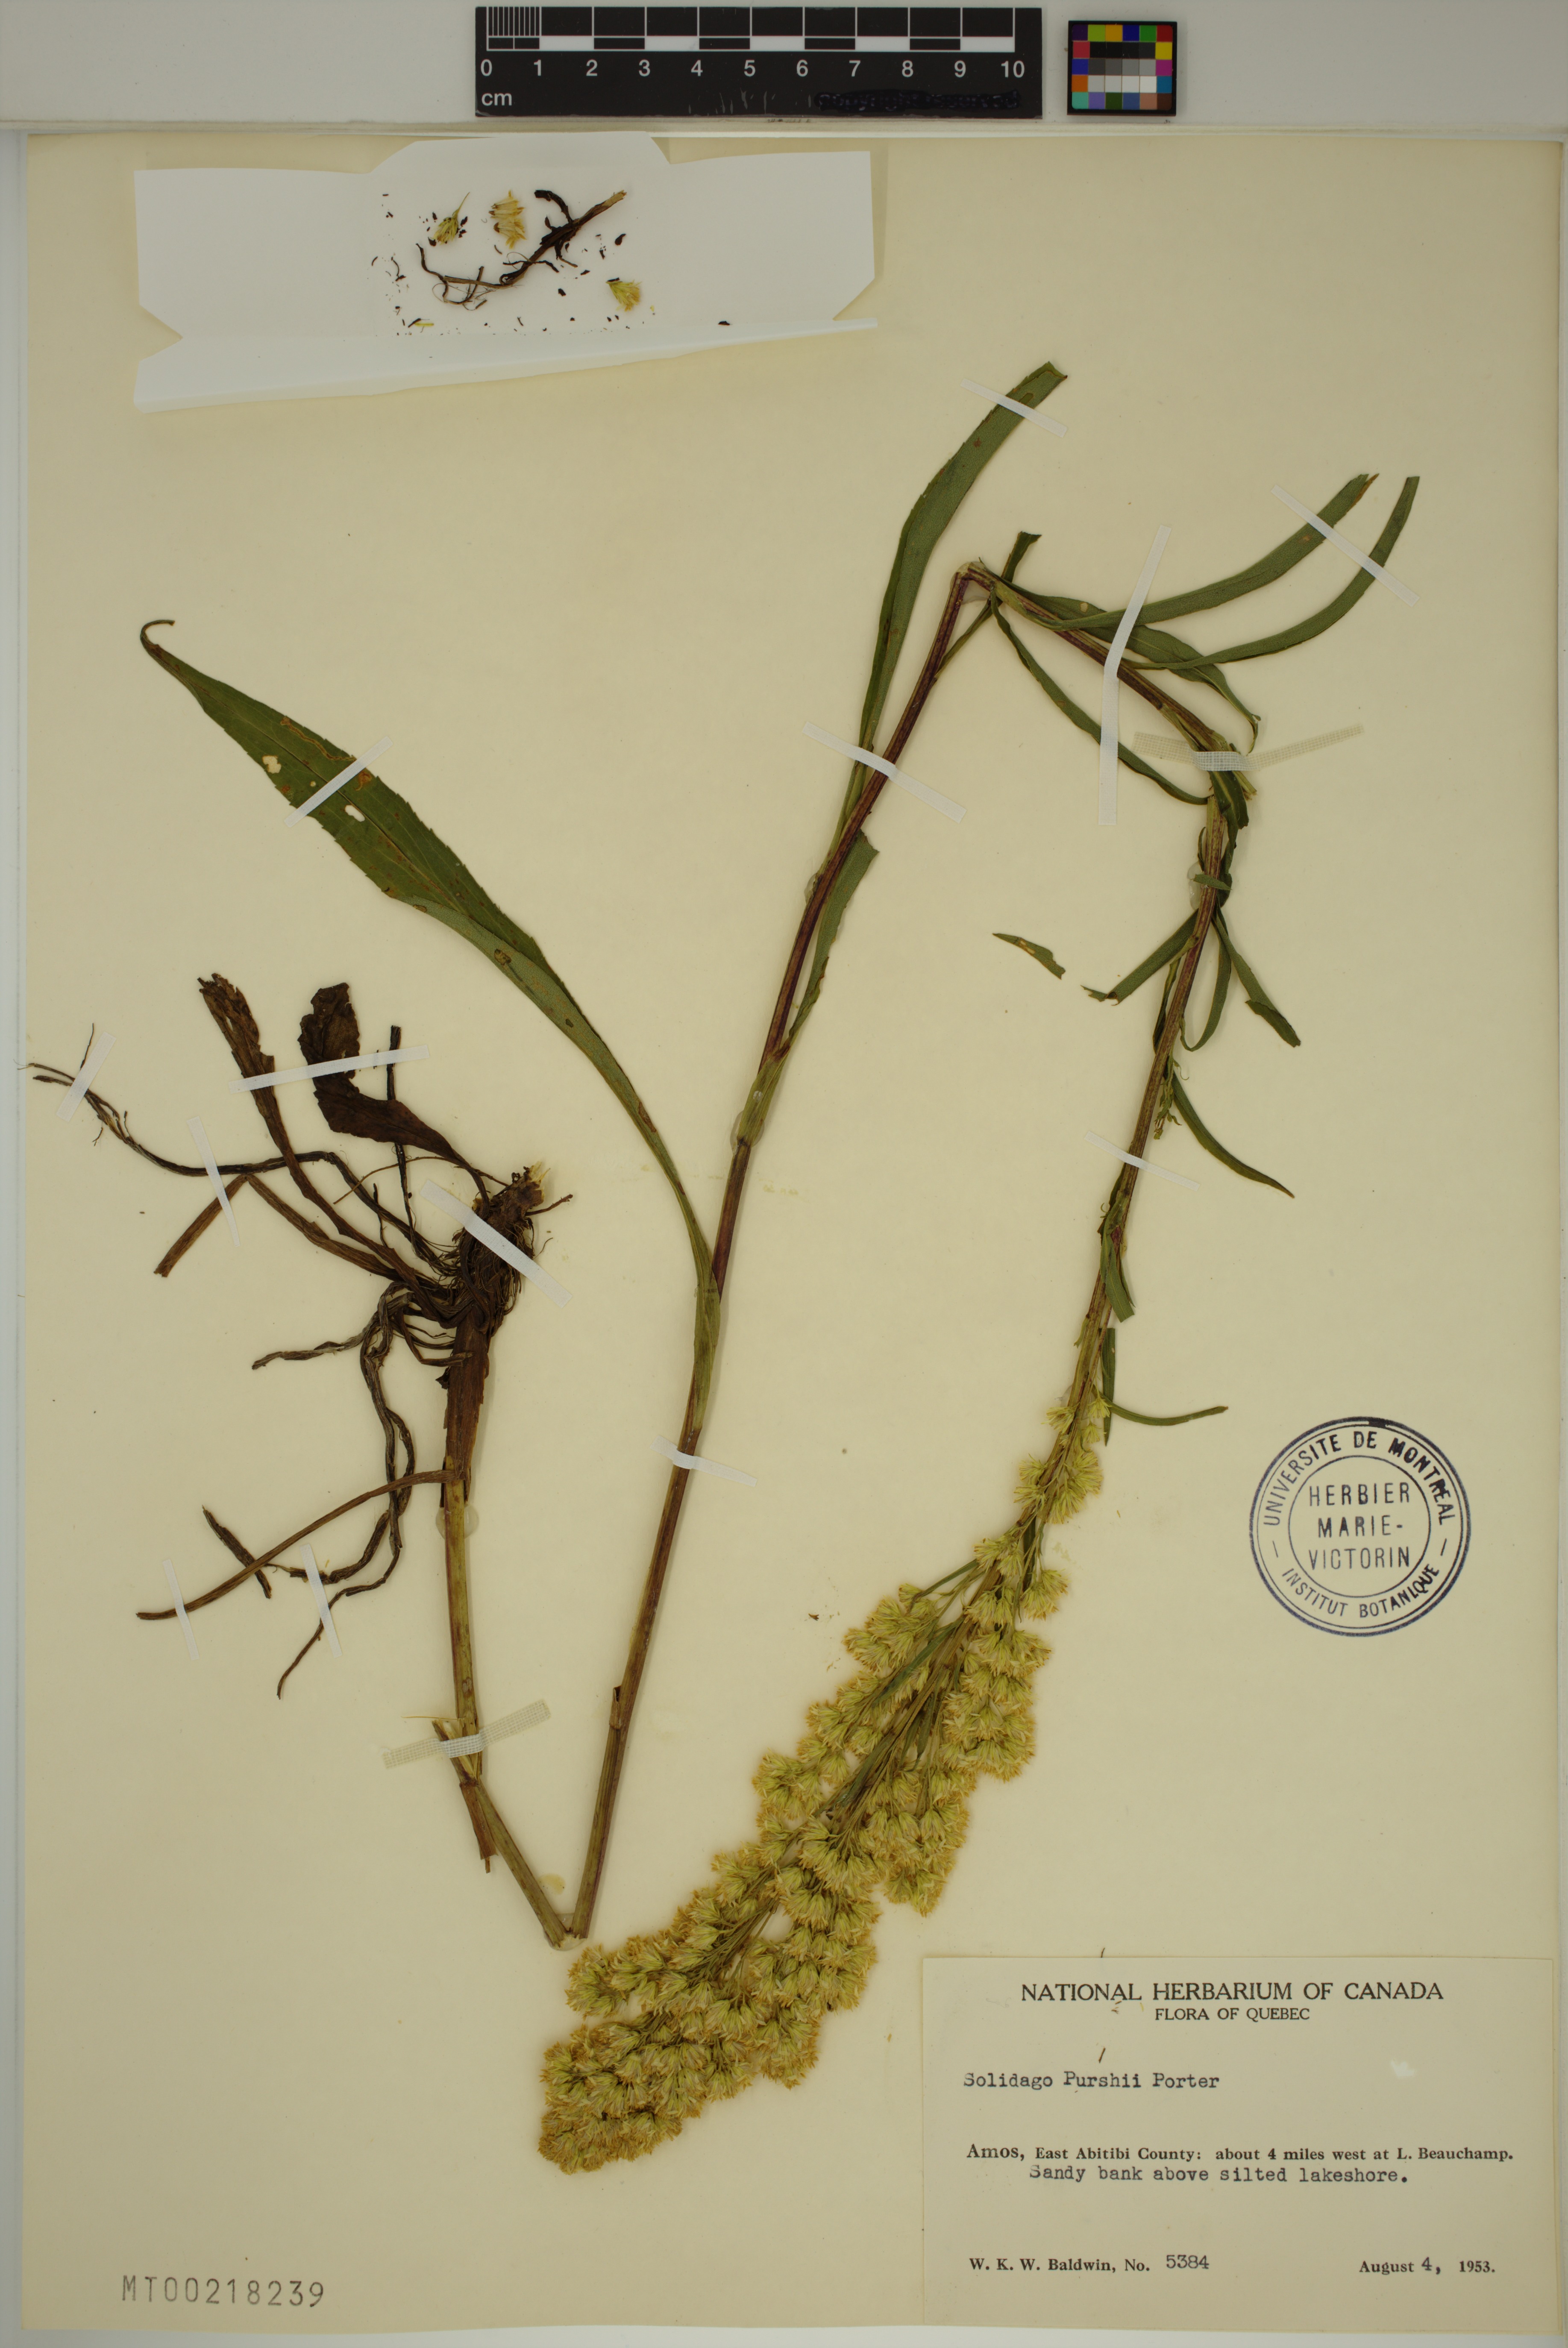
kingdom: Plantae
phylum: Tracheophyta
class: Magnoliopsida
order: Asterales
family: Asteraceae
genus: Solidago
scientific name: Solidago uliginosa
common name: Bog goldenrod
